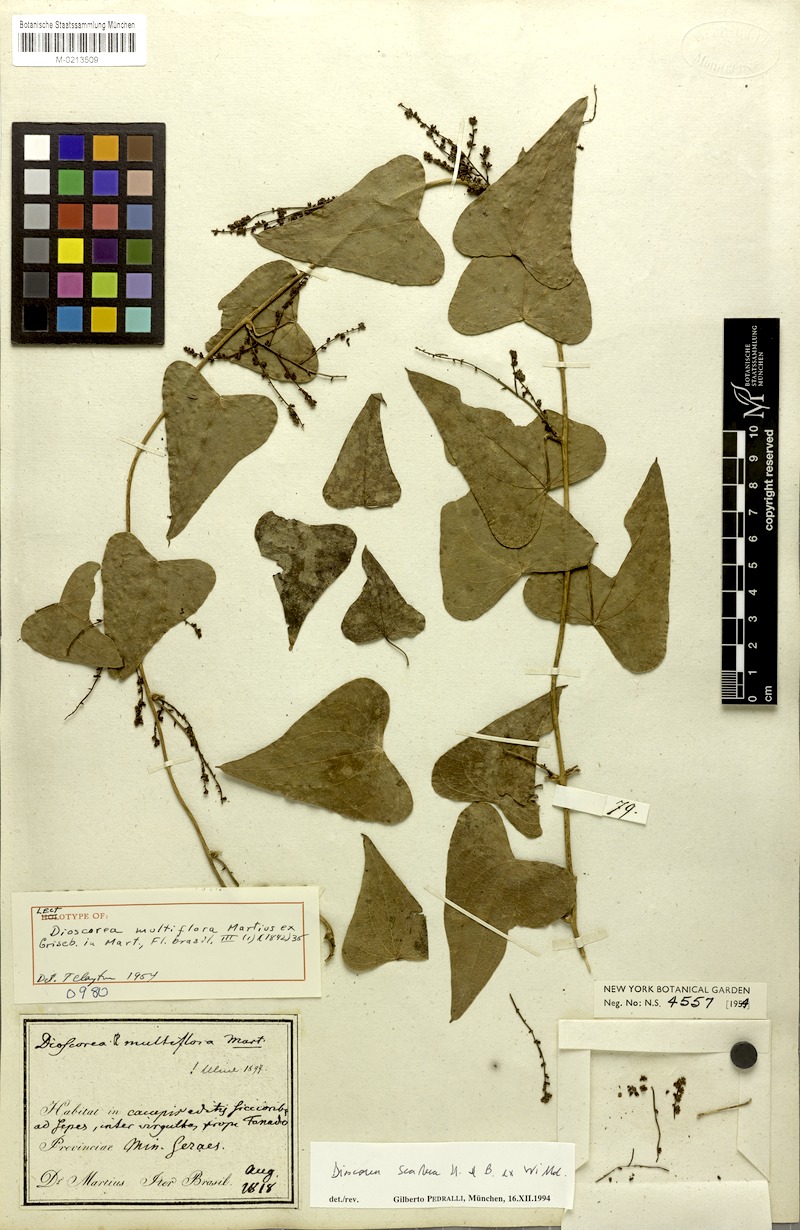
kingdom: Plantae
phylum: Tracheophyta
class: Liliopsida
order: Dioscoreales
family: Dioscoreaceae
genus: Dioscorea
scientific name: Dioscorea multiflora
